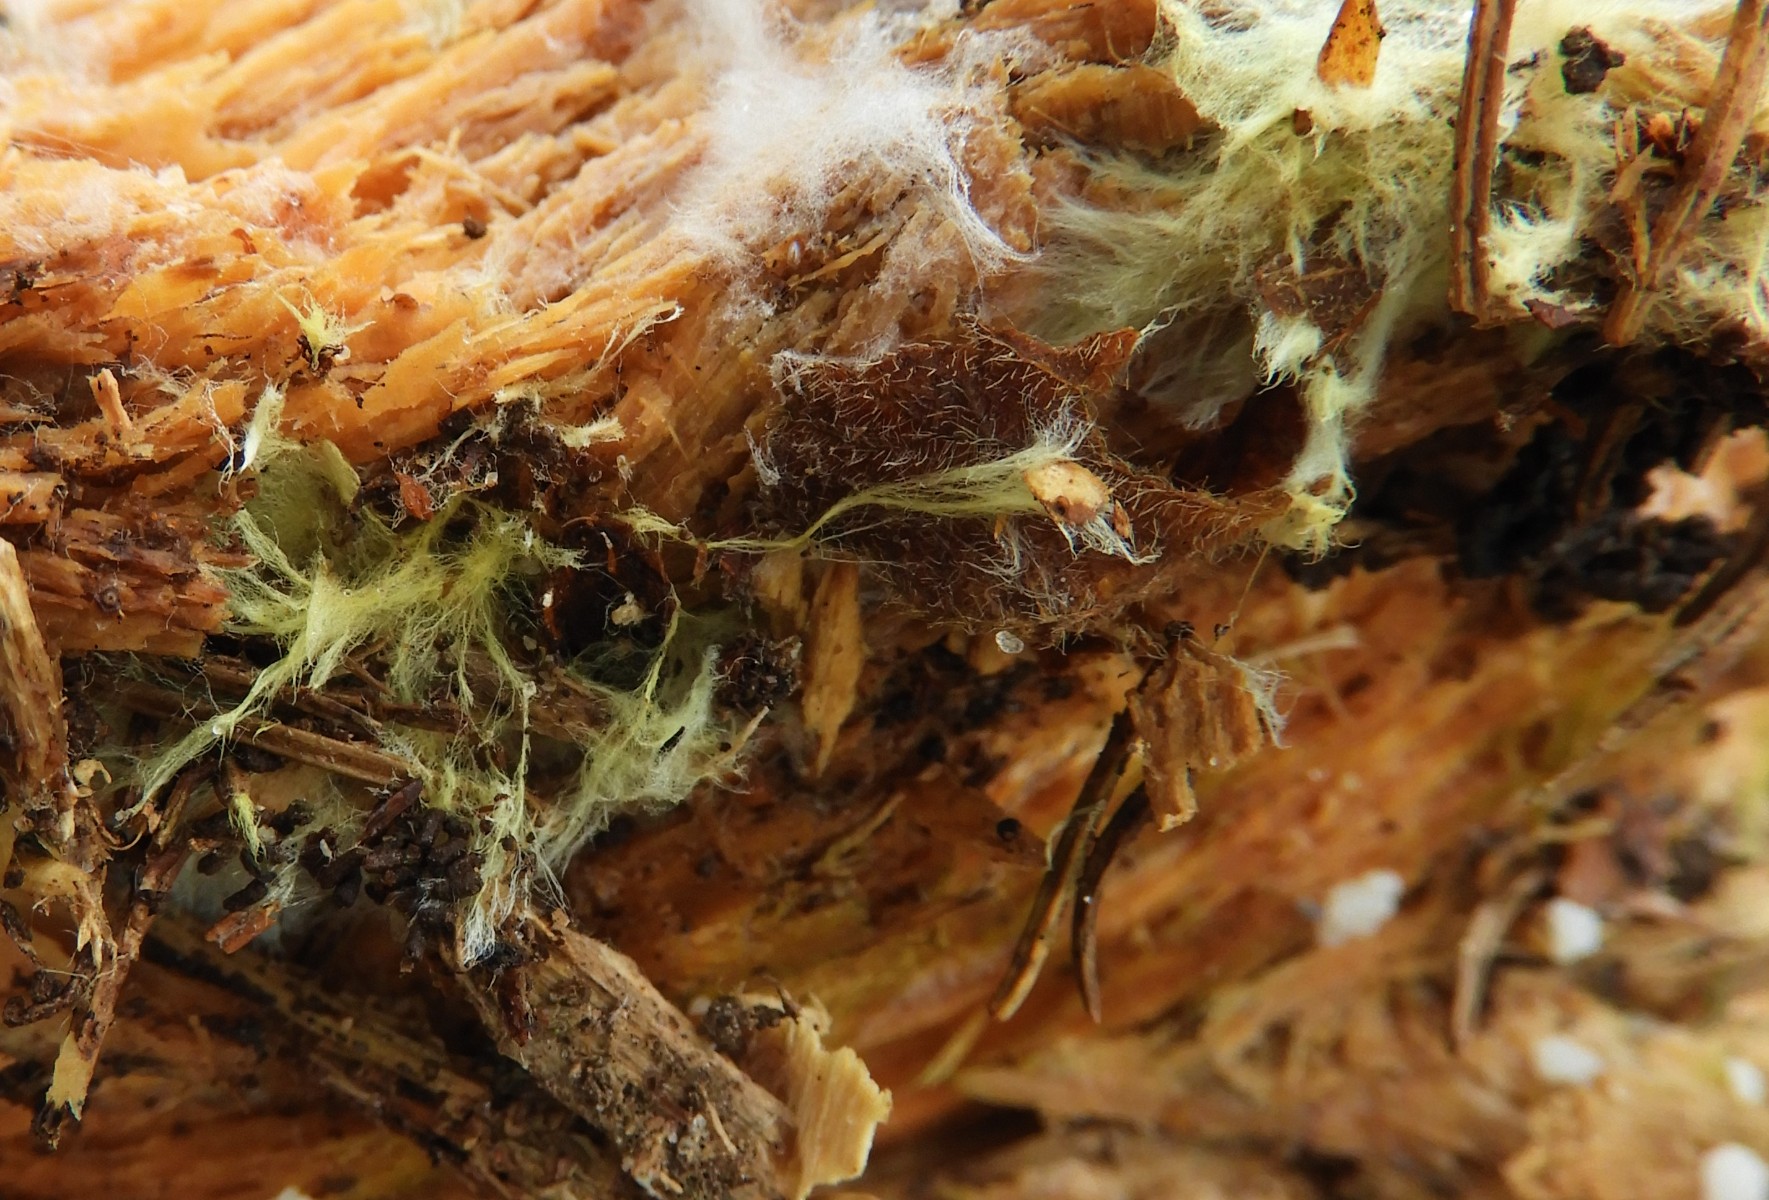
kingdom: Fungi
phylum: Basidiomycota
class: Agaricomycetes
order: Russulales
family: Xenasmataceae
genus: Xenasmatella
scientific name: Xenasmatella vaga
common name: svovl-strenghinde
